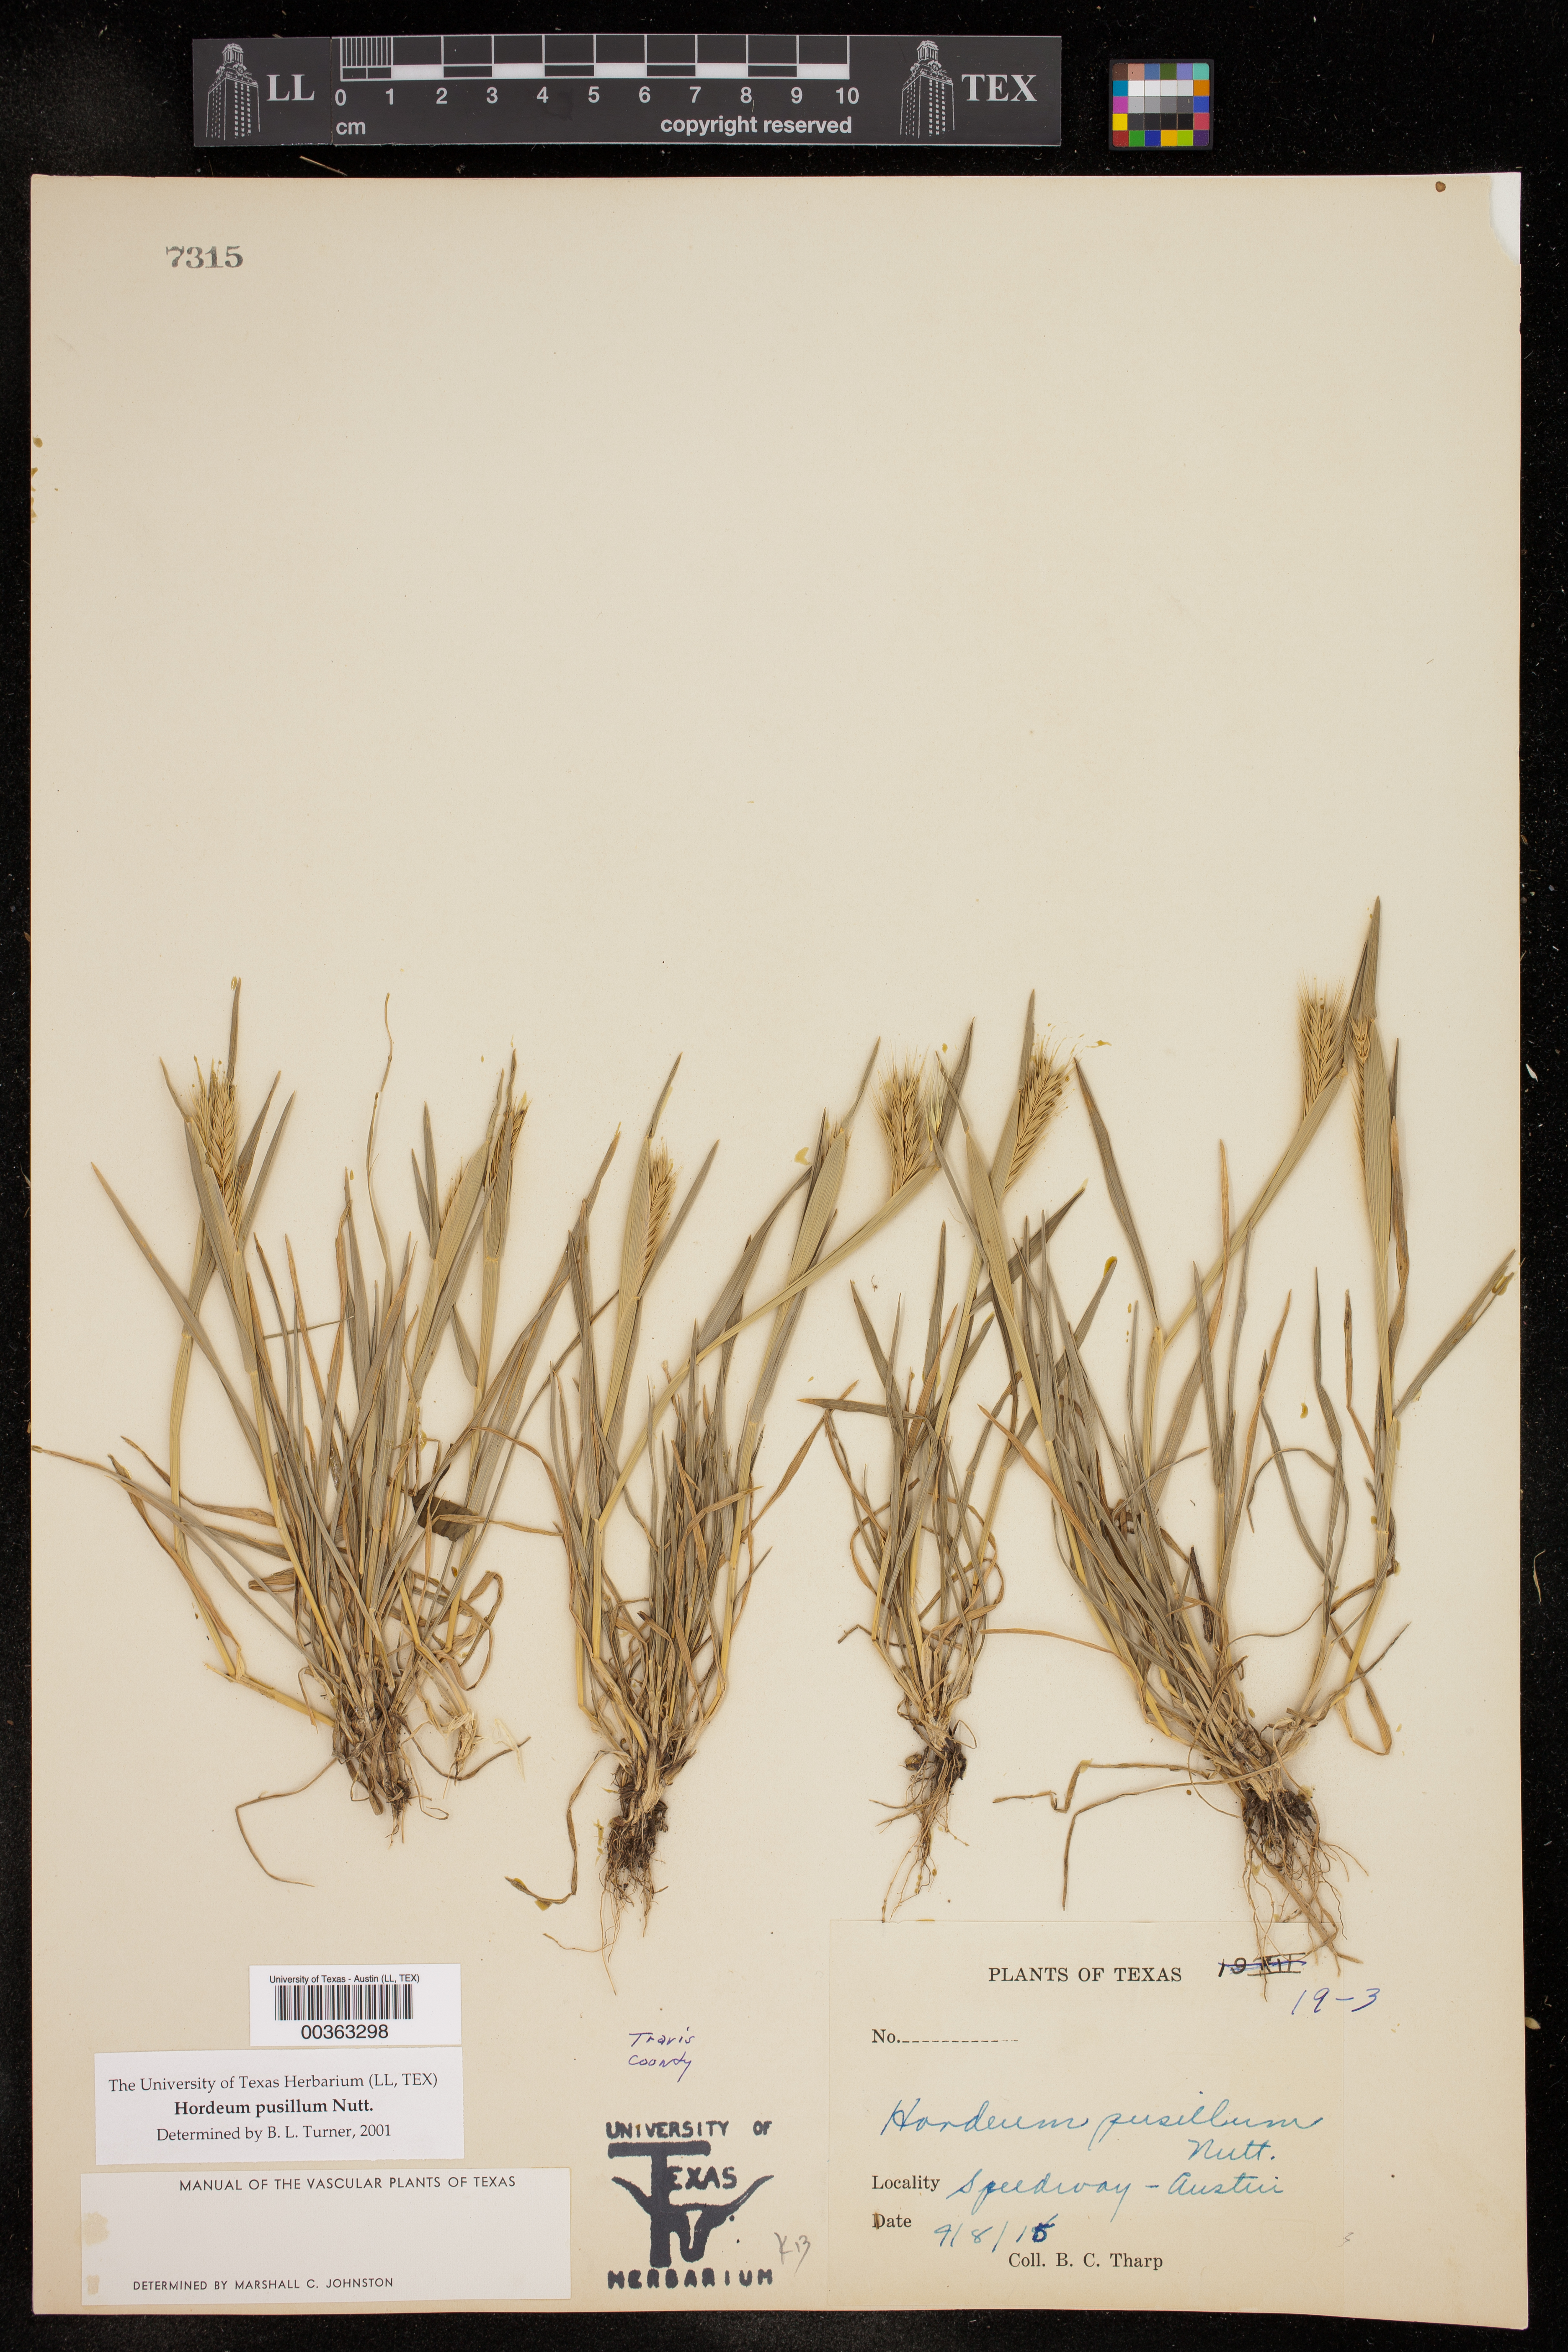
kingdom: Plantae
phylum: Tracheophyta
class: Liliopsida
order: Poales
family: Poaceae
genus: Hordeum
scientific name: Hordeum pusillum
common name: Little barley
